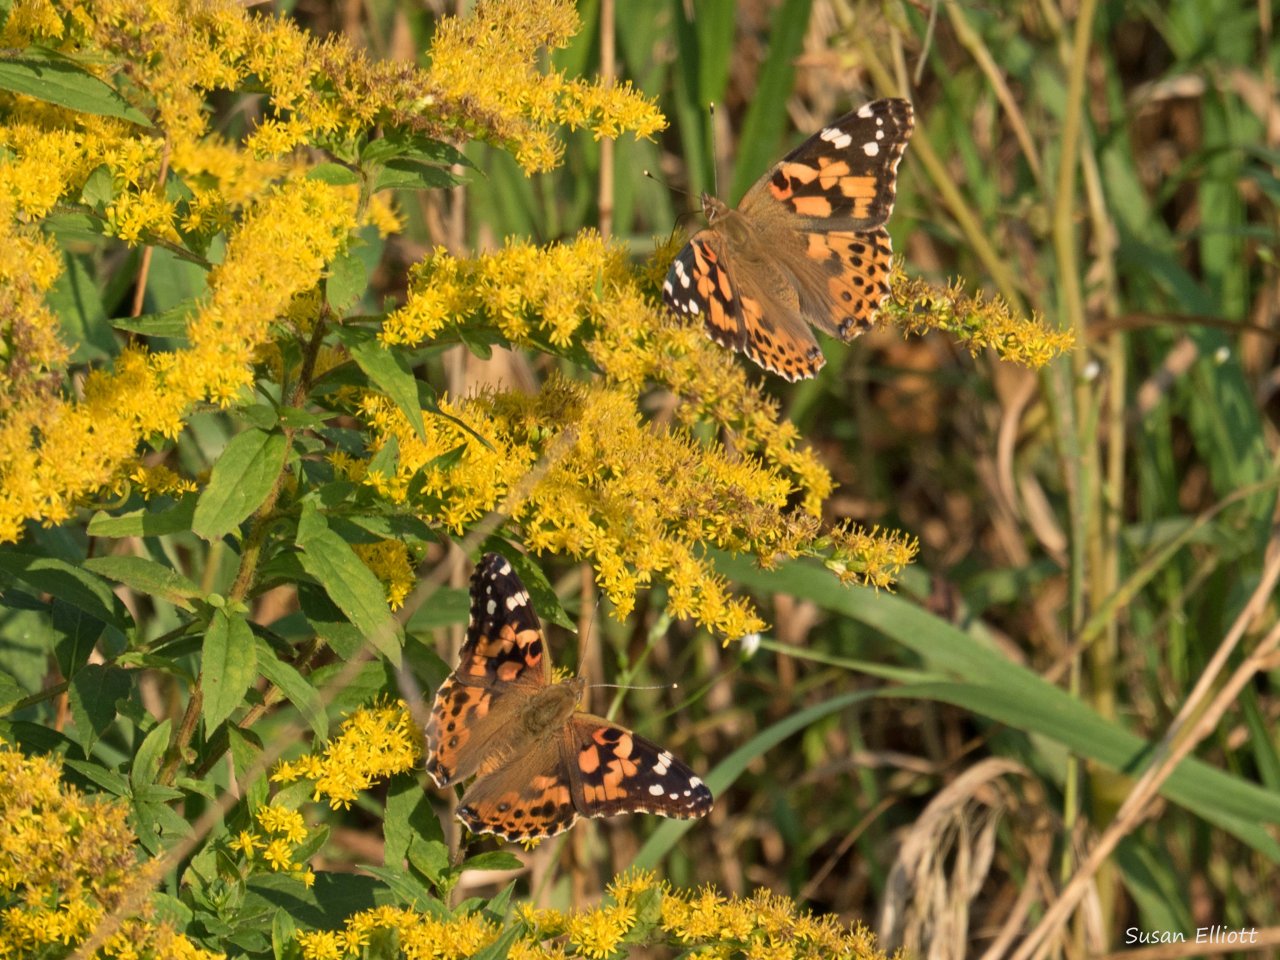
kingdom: Animalia
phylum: Arthropoda
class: Insecta
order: Lepidoptera
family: Nymphalidae
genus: Vanessa
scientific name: Vanessa cardui
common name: Painted Lady
